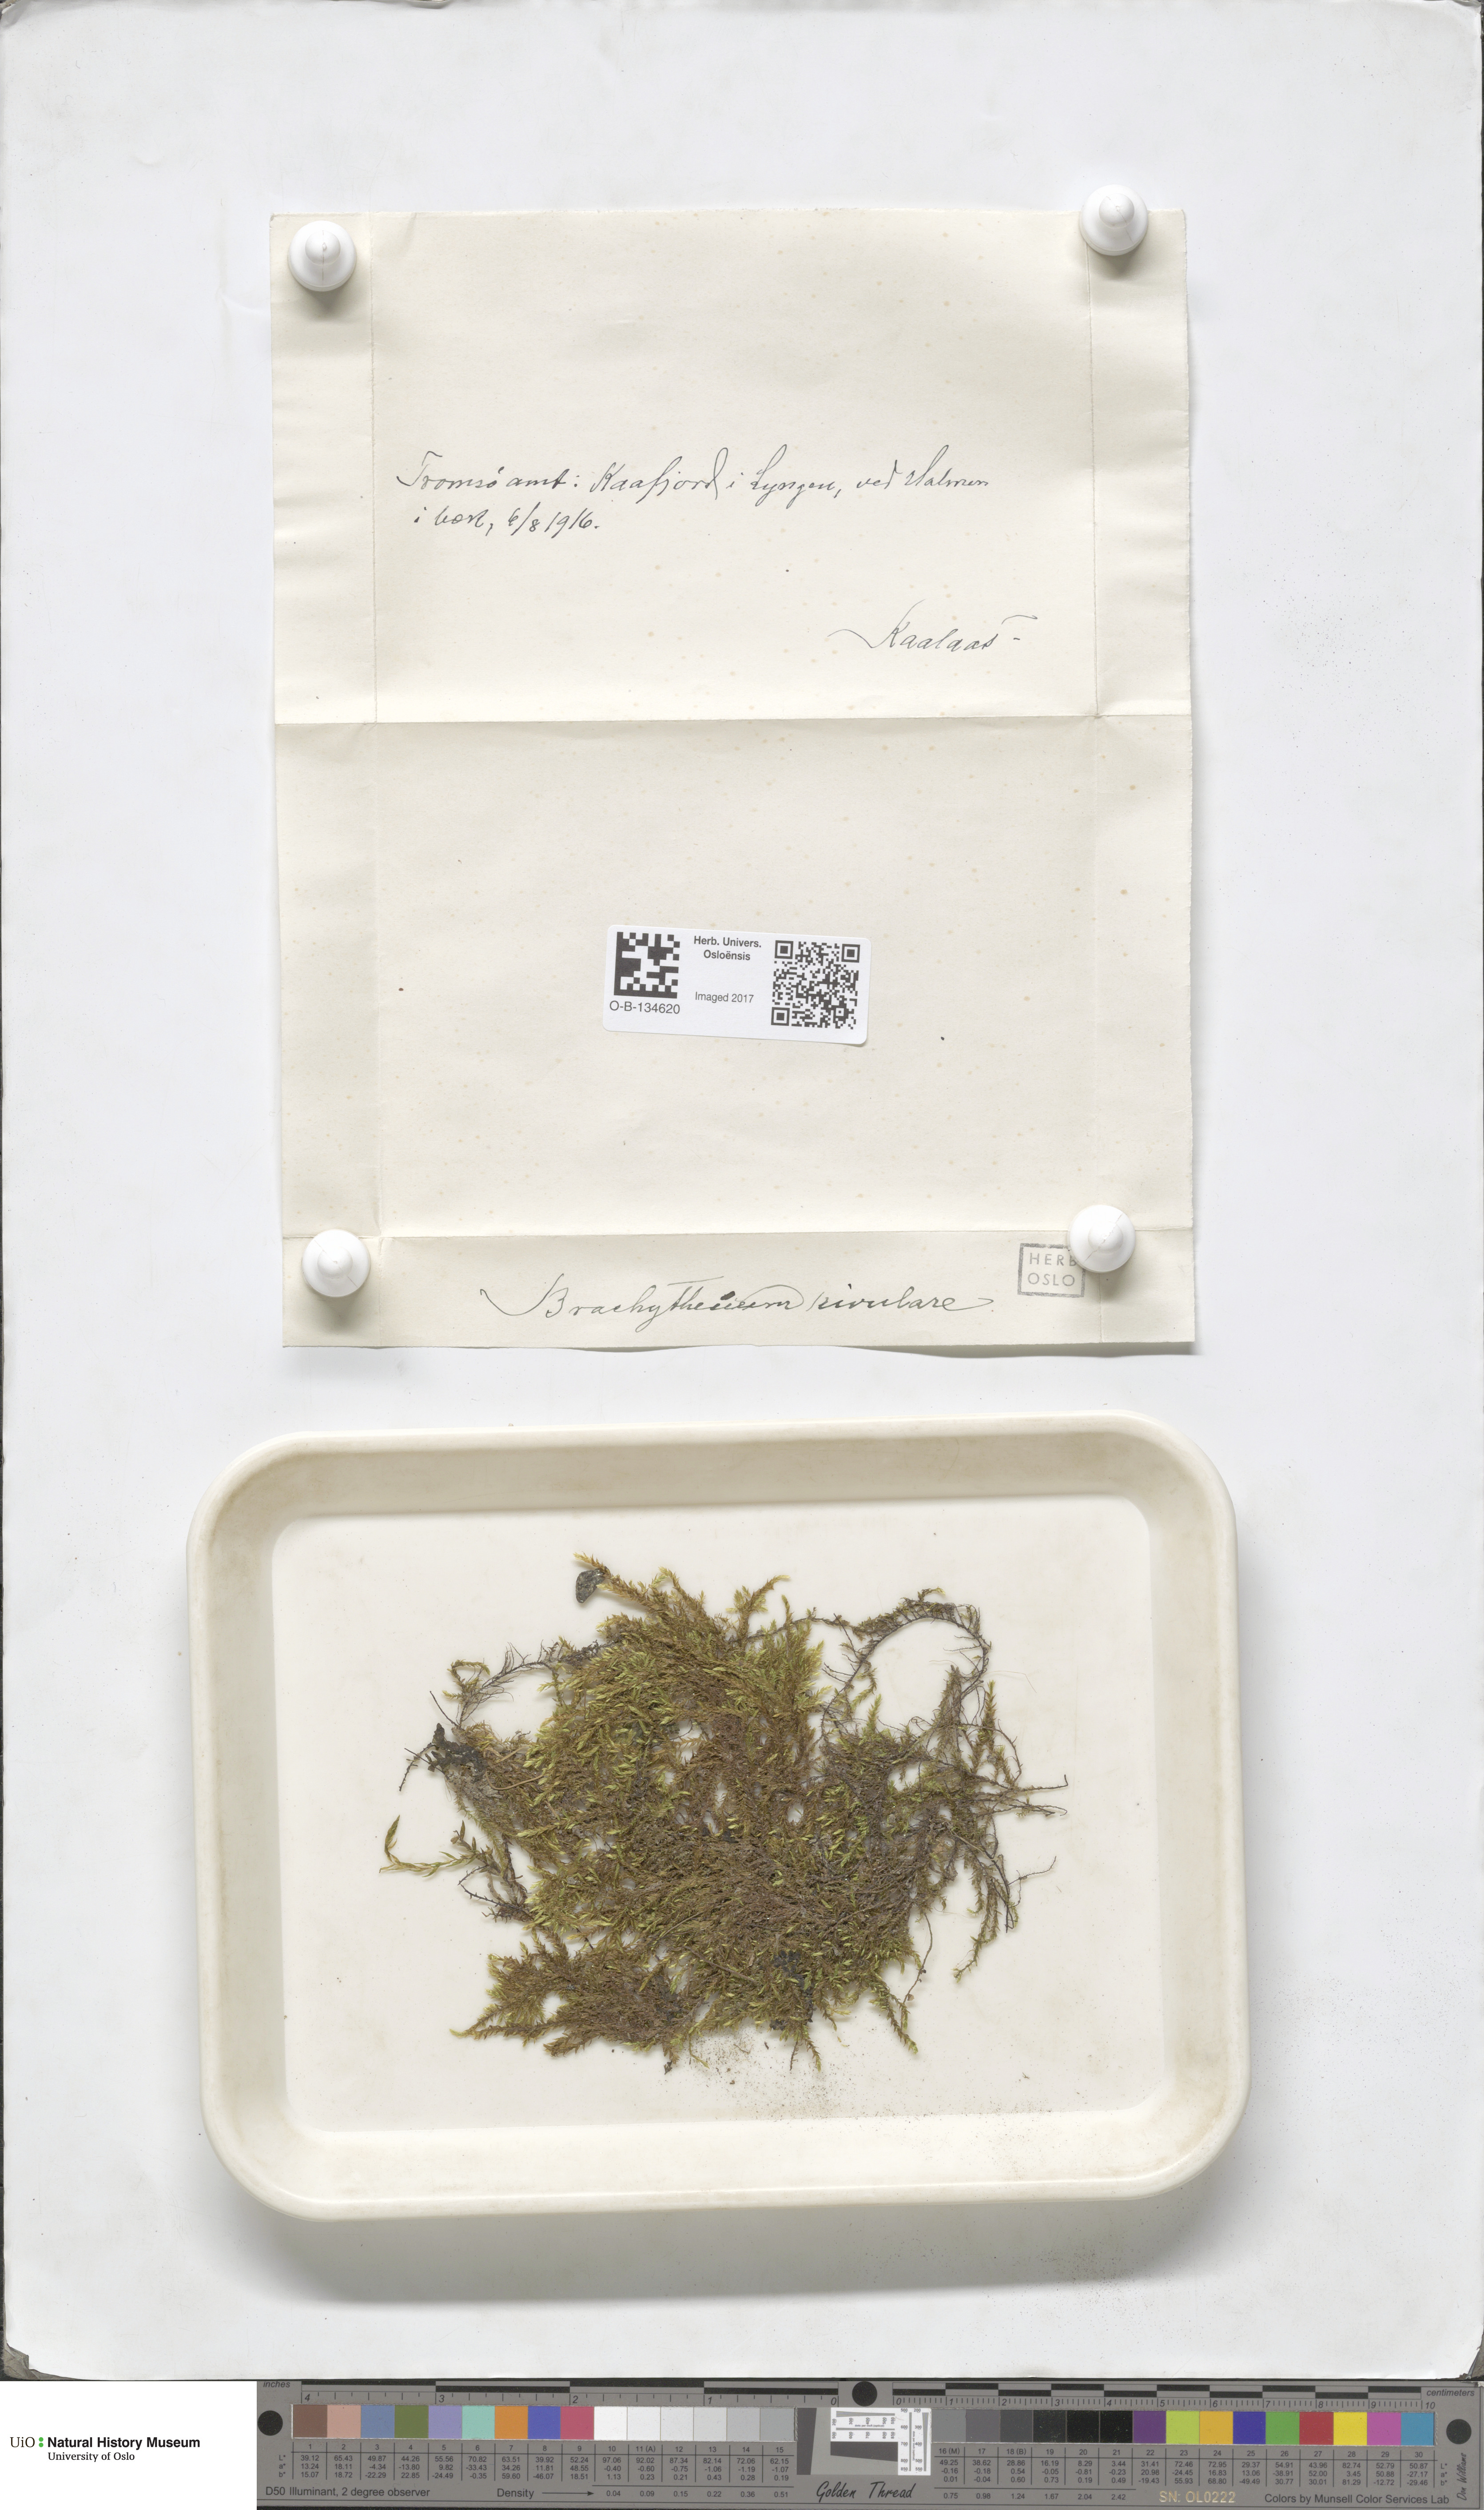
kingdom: Plantae
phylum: Bryophyta
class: Bryopsida
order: Hypnales
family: Brachytheciaceae
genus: Brachythecium
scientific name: Brachythecium rivulare
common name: River ragged moss
